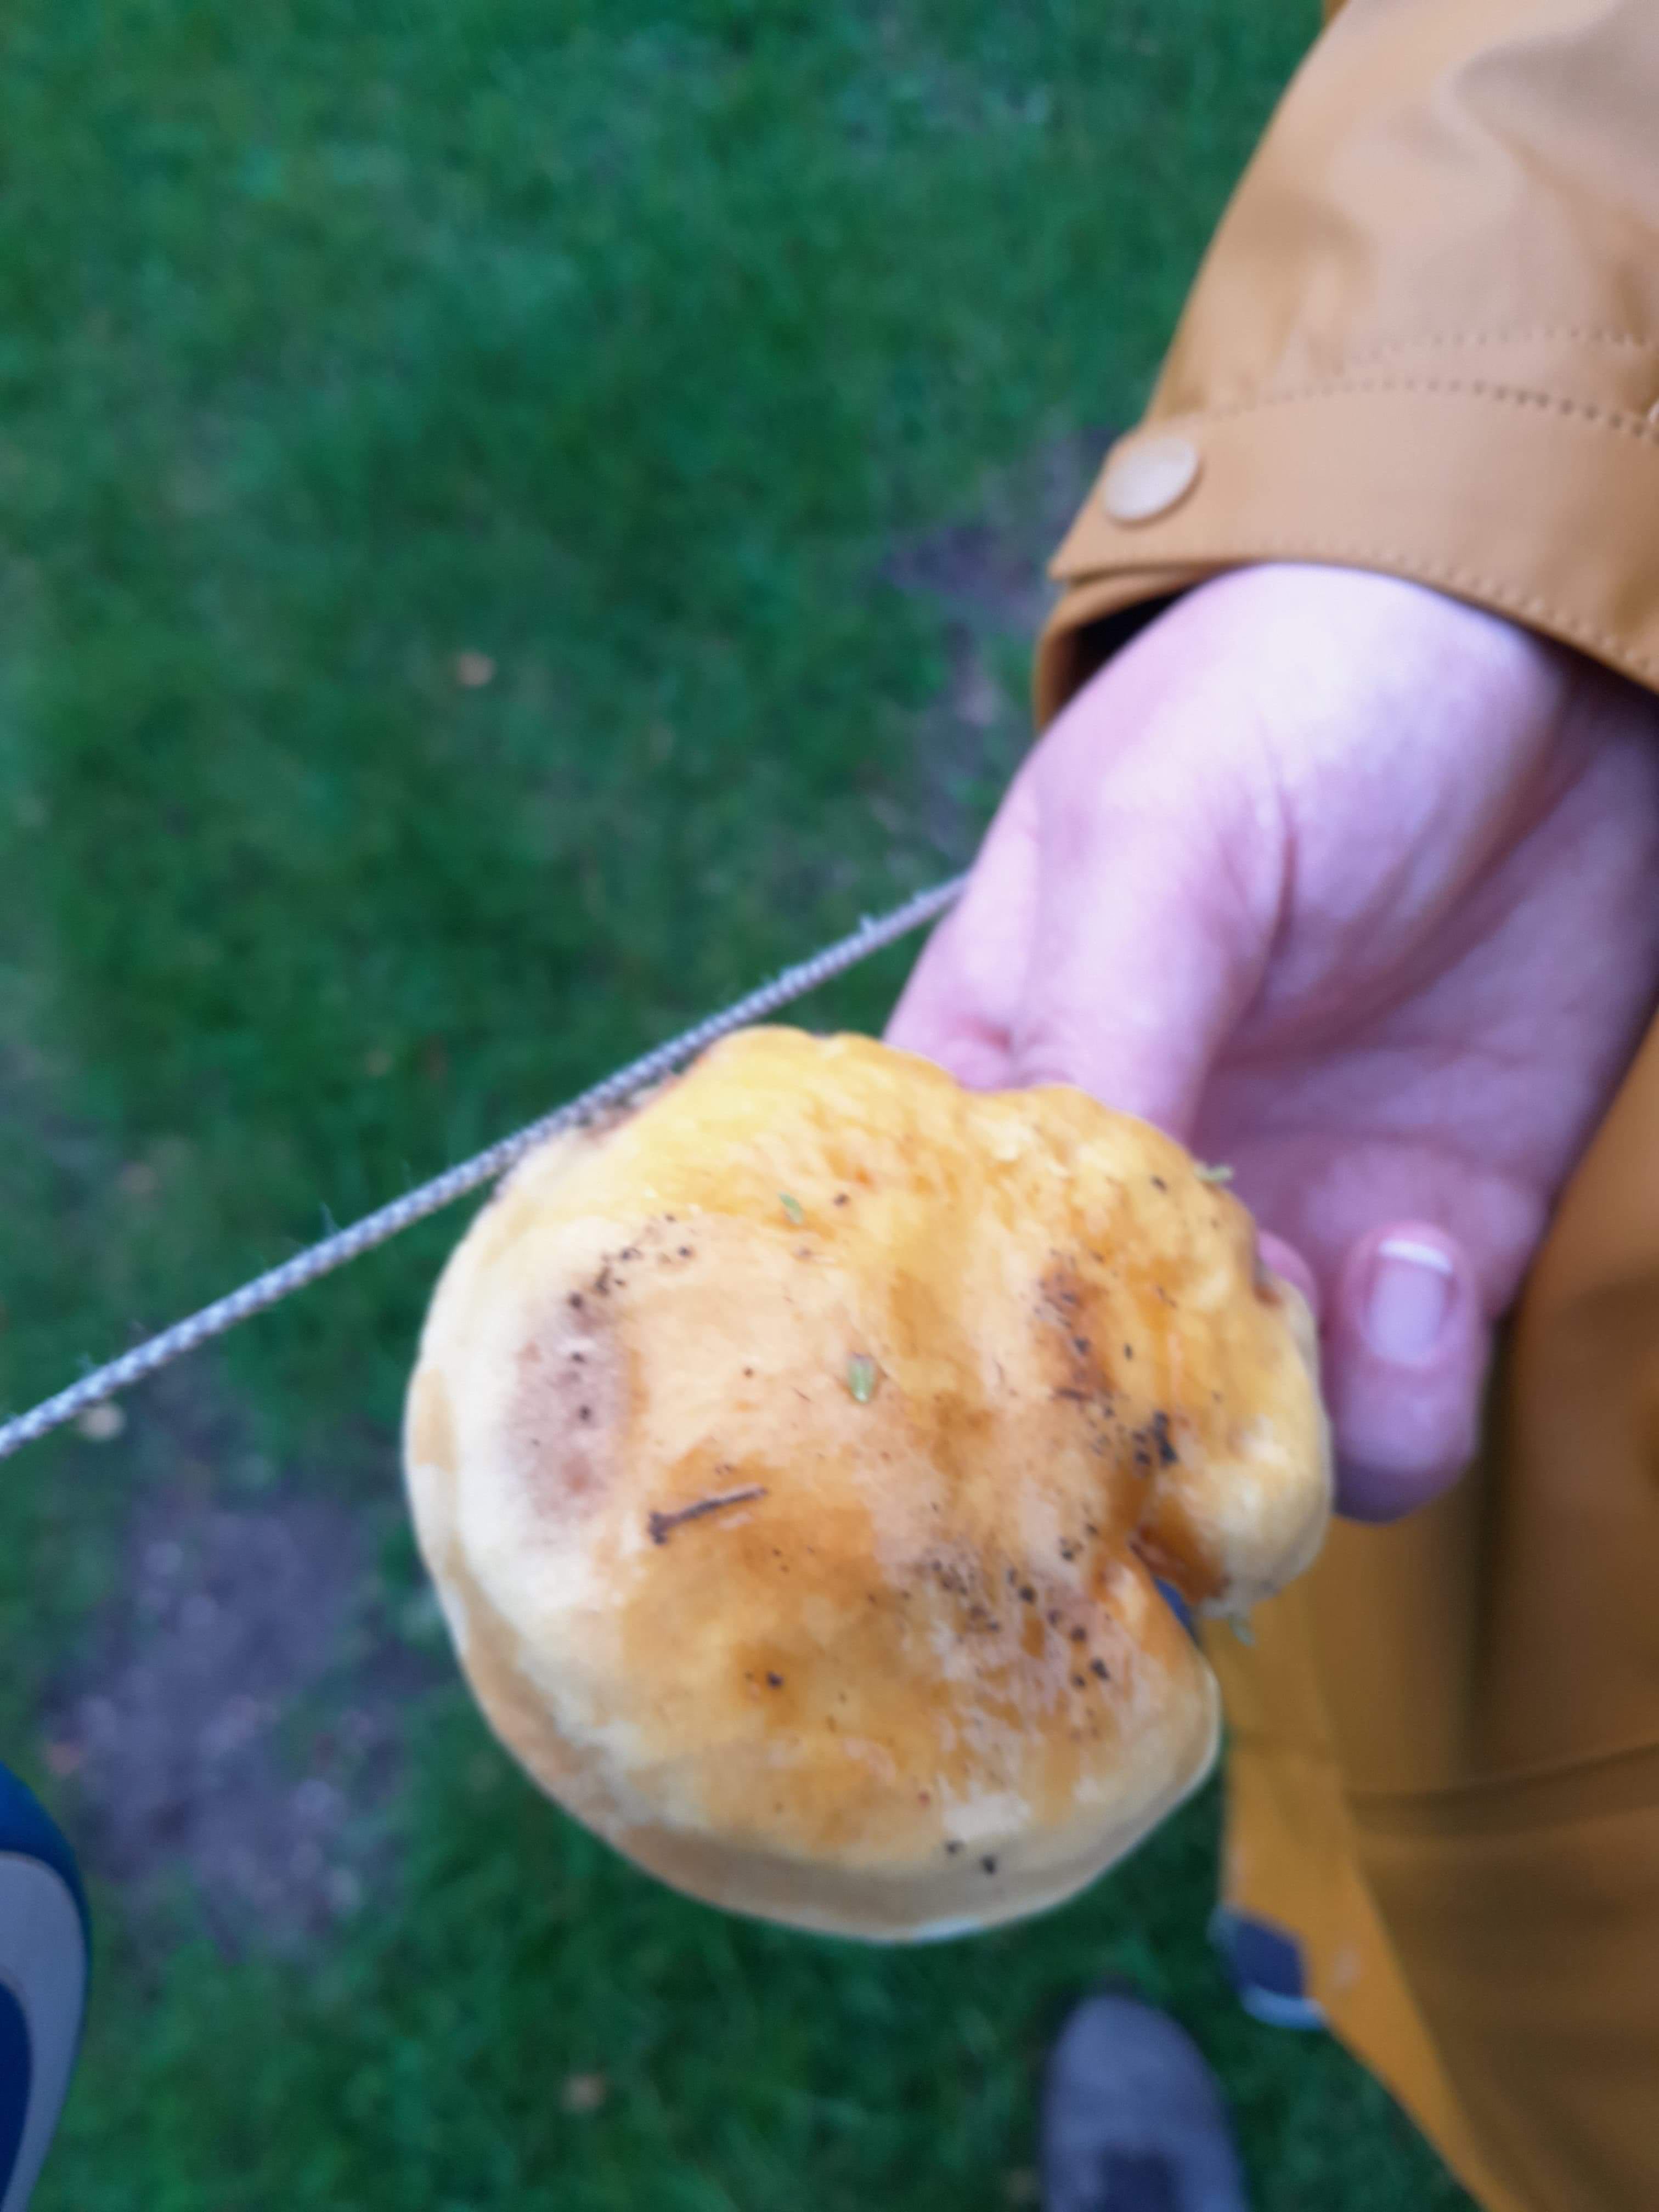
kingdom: Fungi
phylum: Basidiomycota
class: Agaricomycetes
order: Boletales
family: Suillaceae
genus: Suillus
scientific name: Suillus grevillei
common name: lærke-slimrørhat
